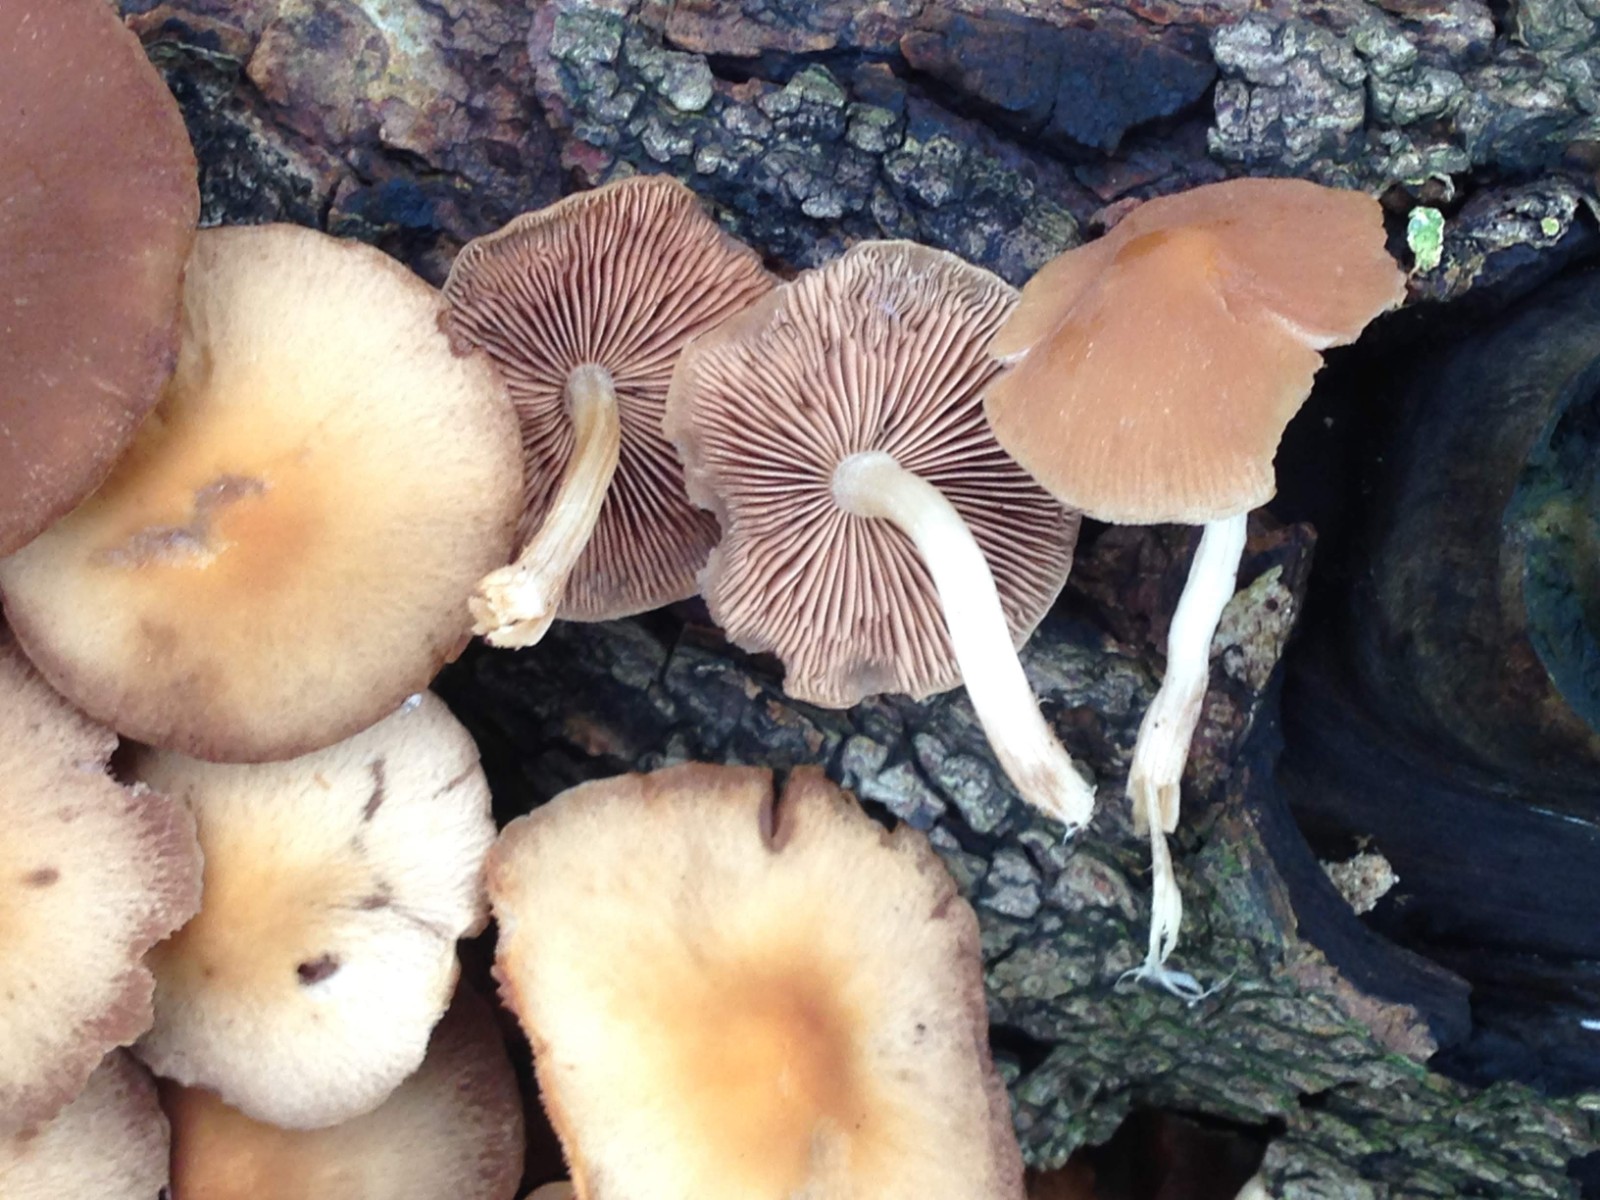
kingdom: Fungi
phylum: Basidiomycota
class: Agaricomycetes
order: Agaricales
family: Psathyrellaceae
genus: Psathyrella
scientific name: Psathyrella piluliformis
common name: lysstokket mørkhat
